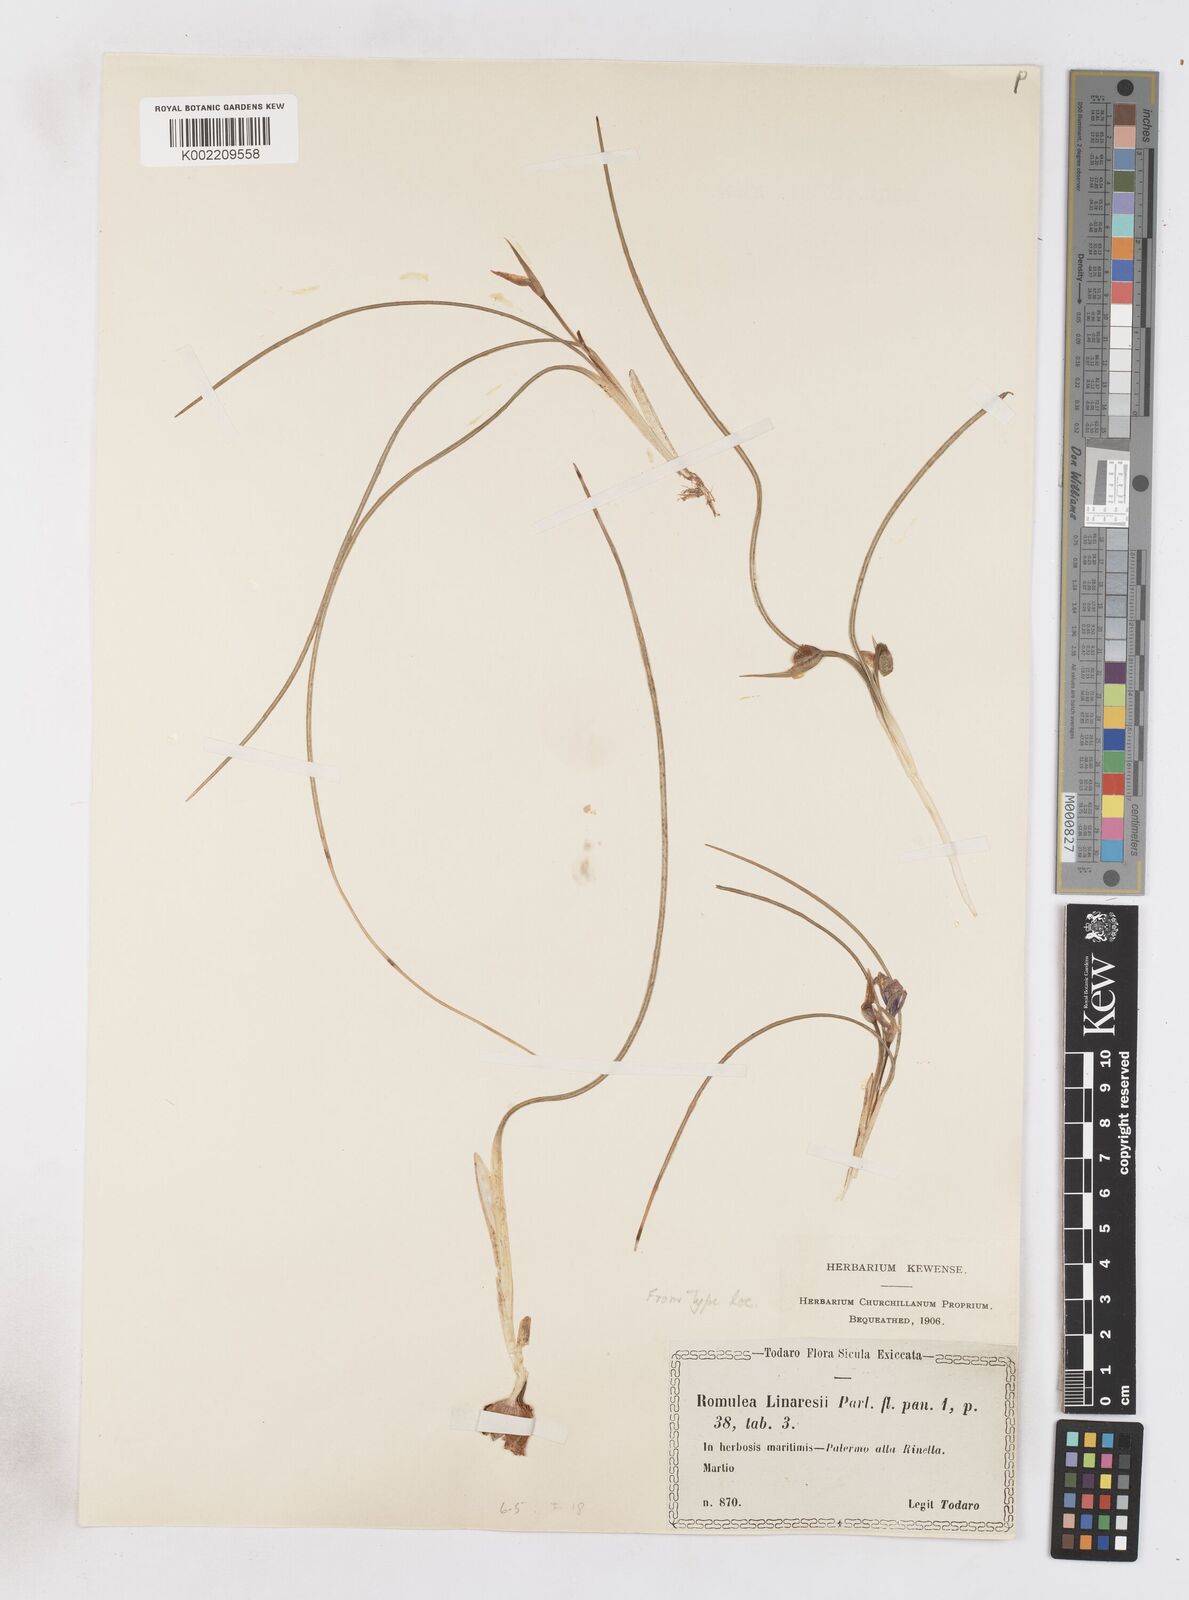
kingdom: Plantae
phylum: Tracheophyta
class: Liliopsida
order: Asparagales
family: Iridaceae
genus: Romulea
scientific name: Romulea linaresii
